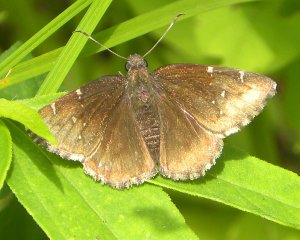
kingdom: Animalia
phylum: Arthropoda
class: Insecta
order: Lepidoptera
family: Hesperiidae
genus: Autochton
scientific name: Autochton
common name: Northern Cloudywing
